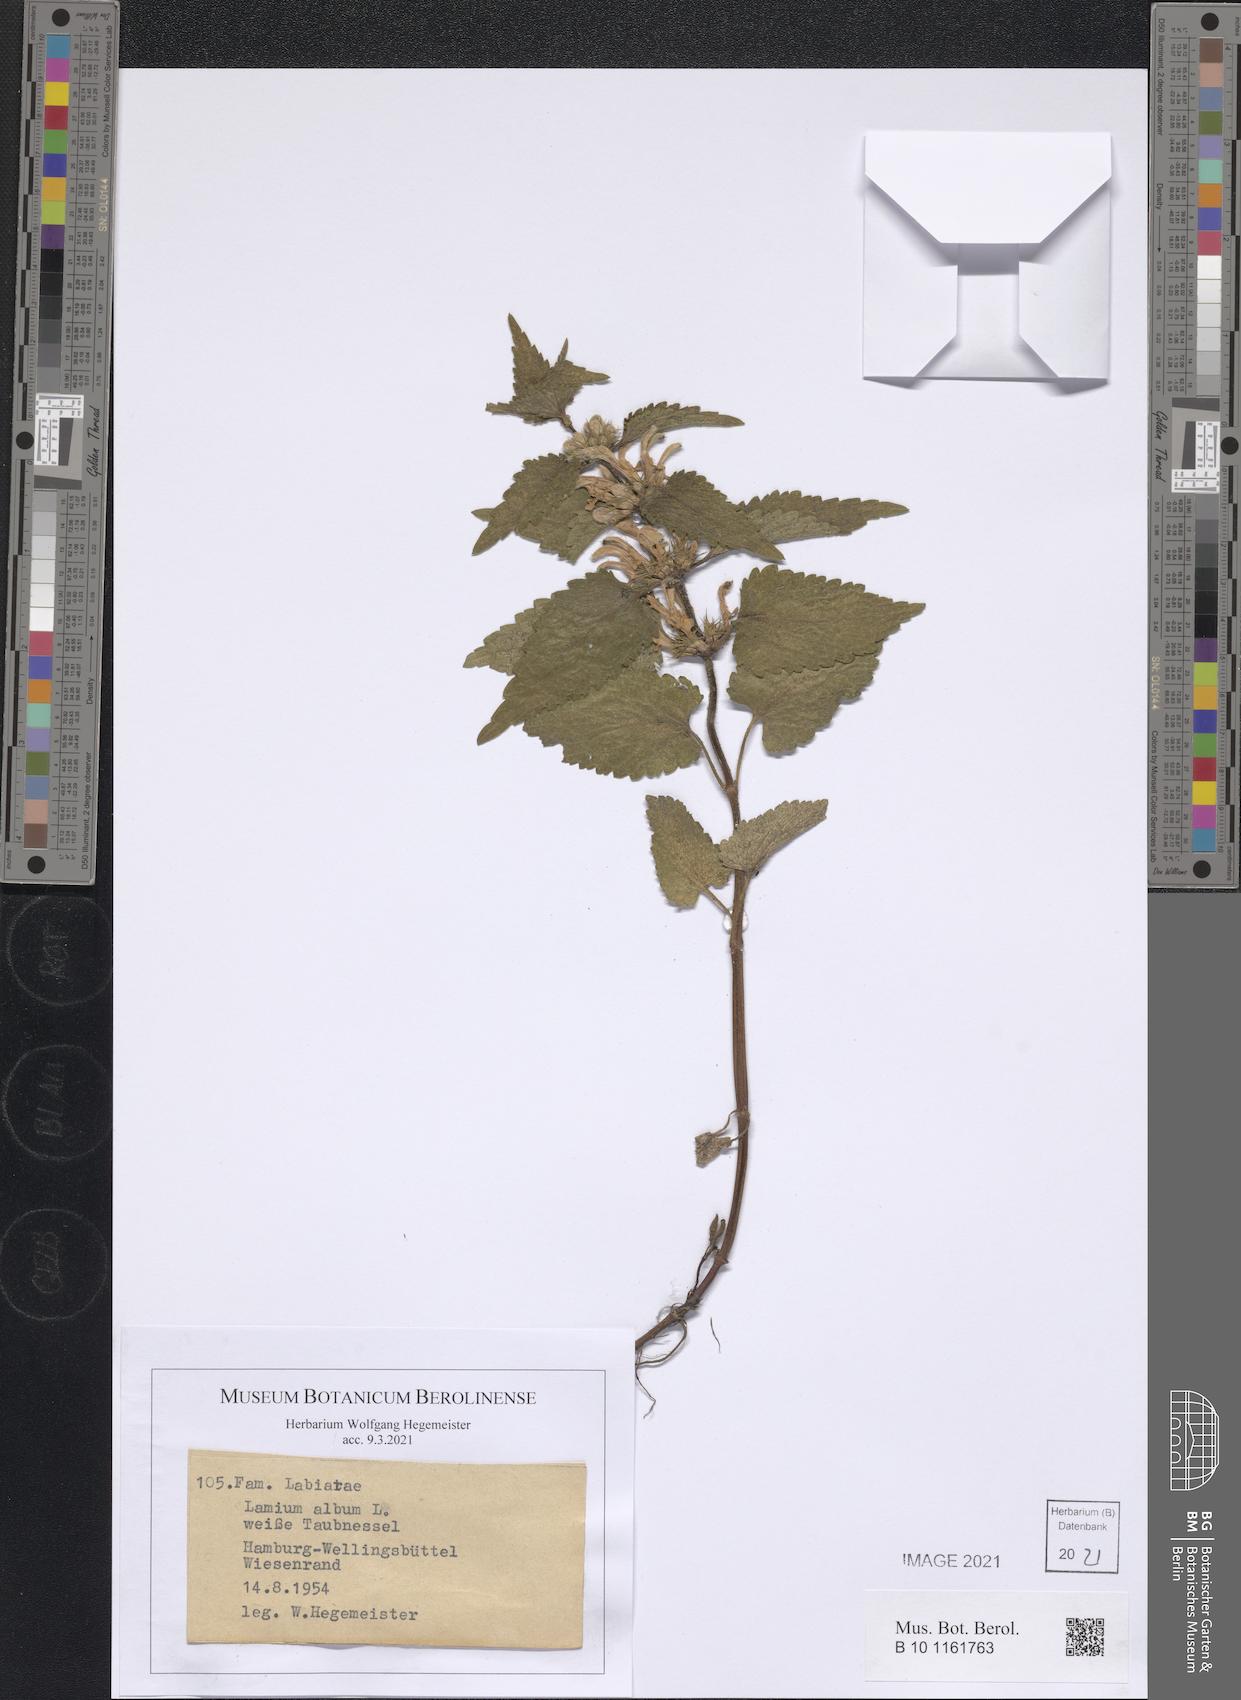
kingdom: Plantae
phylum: Tracheophyta
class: Magnoliopsida
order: Lamiales
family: Lamiaceae
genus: Lamium
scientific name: Lamium album
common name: White dead-nettle
